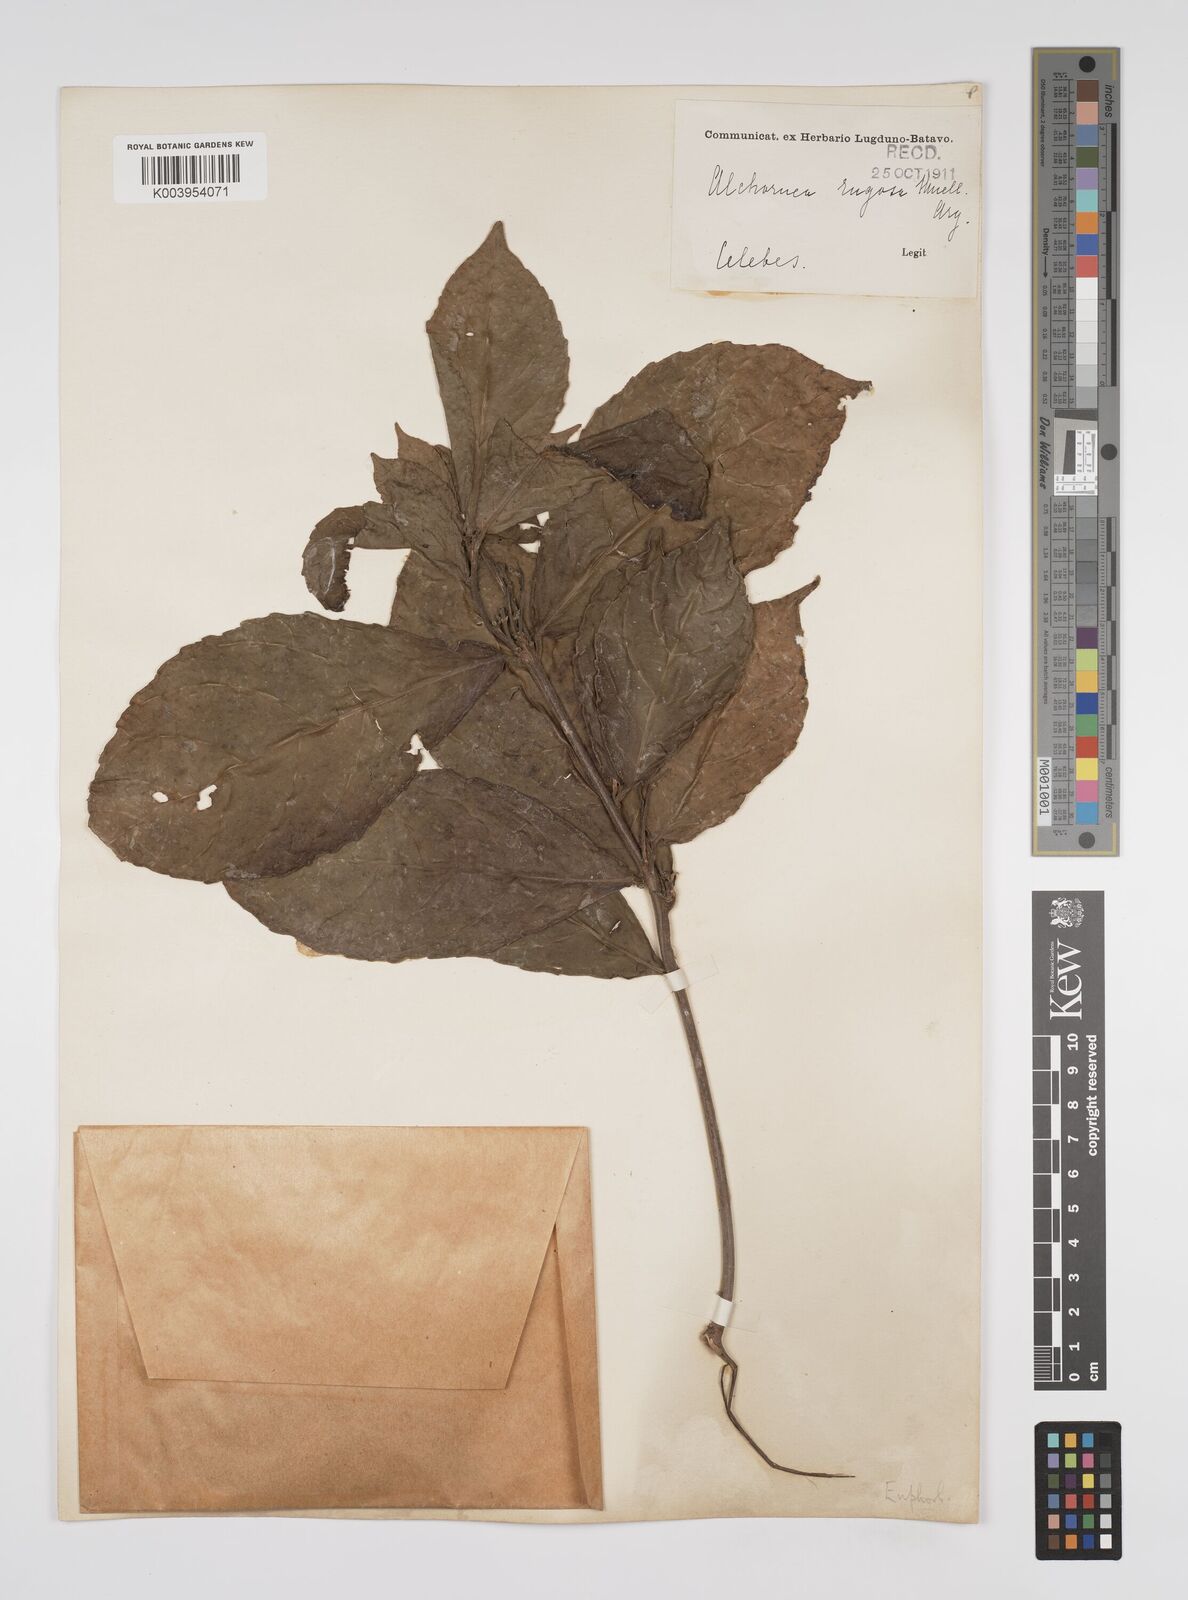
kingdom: Plantae
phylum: Tracheophyta
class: Magnoliopsida
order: Malpighiales
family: Euphorbiaceae
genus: Alchornea
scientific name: Alchornea rugosa
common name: Alchorntree
